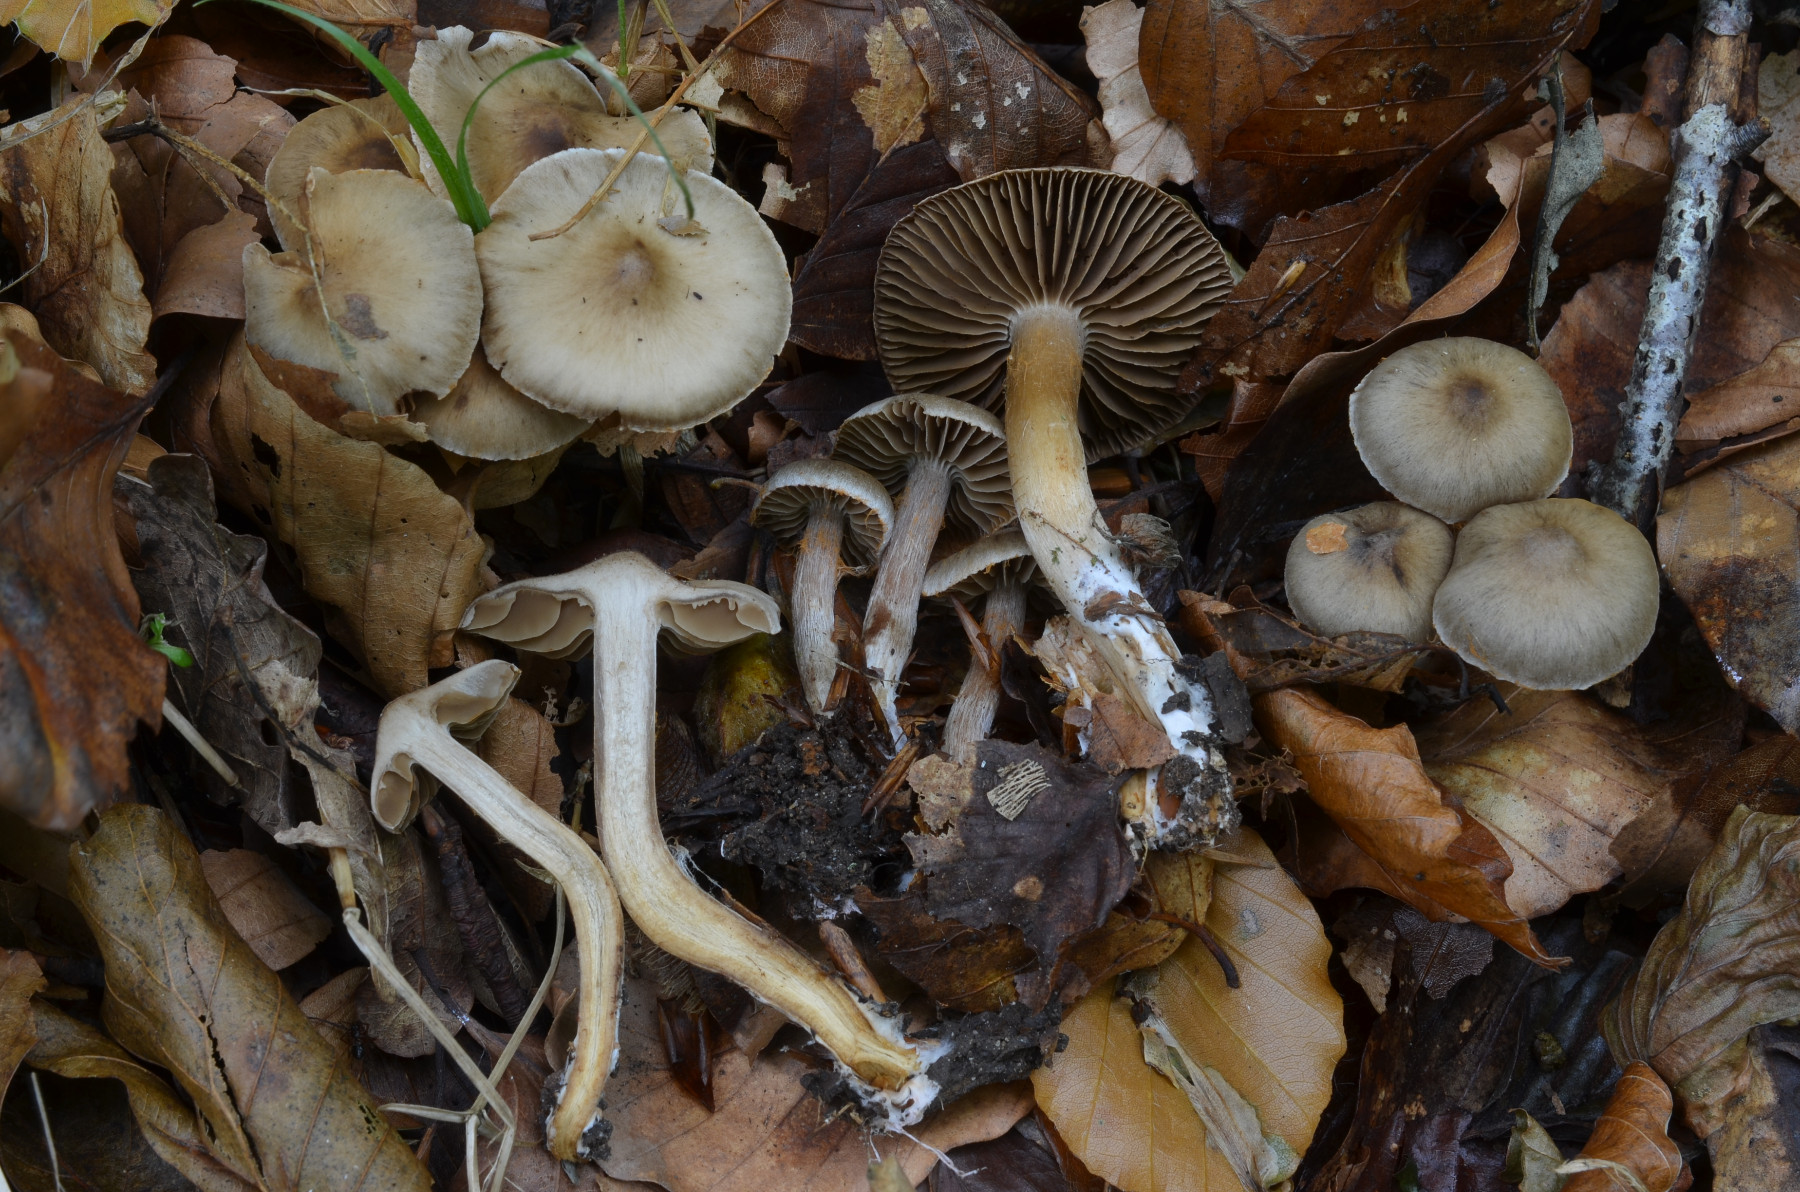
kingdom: Fungi
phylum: Basidiomycota
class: Agaricomycetes
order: Agaricales
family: Cortinariaceae
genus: Cortinarius
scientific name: Cortinarius alboadustus
